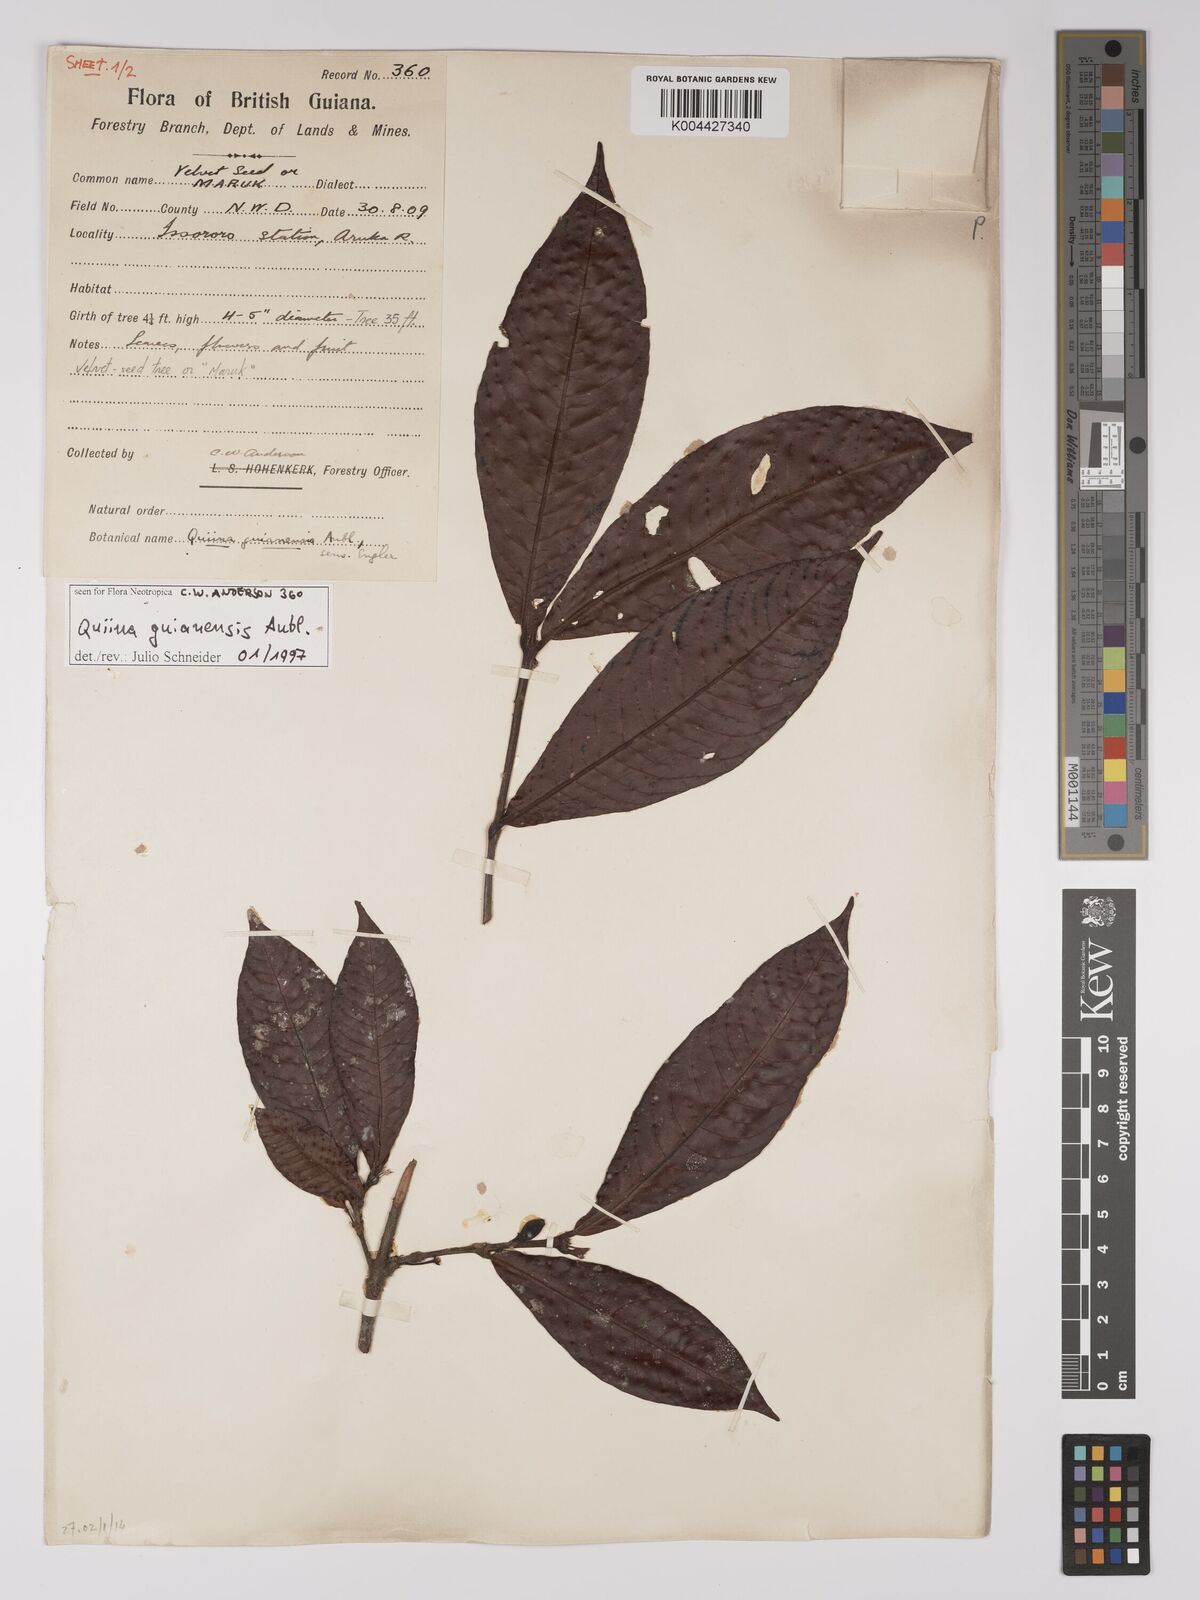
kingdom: Plantae
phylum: Tracheophyta
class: Magnoliopsida
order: Malpighiales
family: Quiinaceae
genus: Quiina
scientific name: Quiina guianensis
